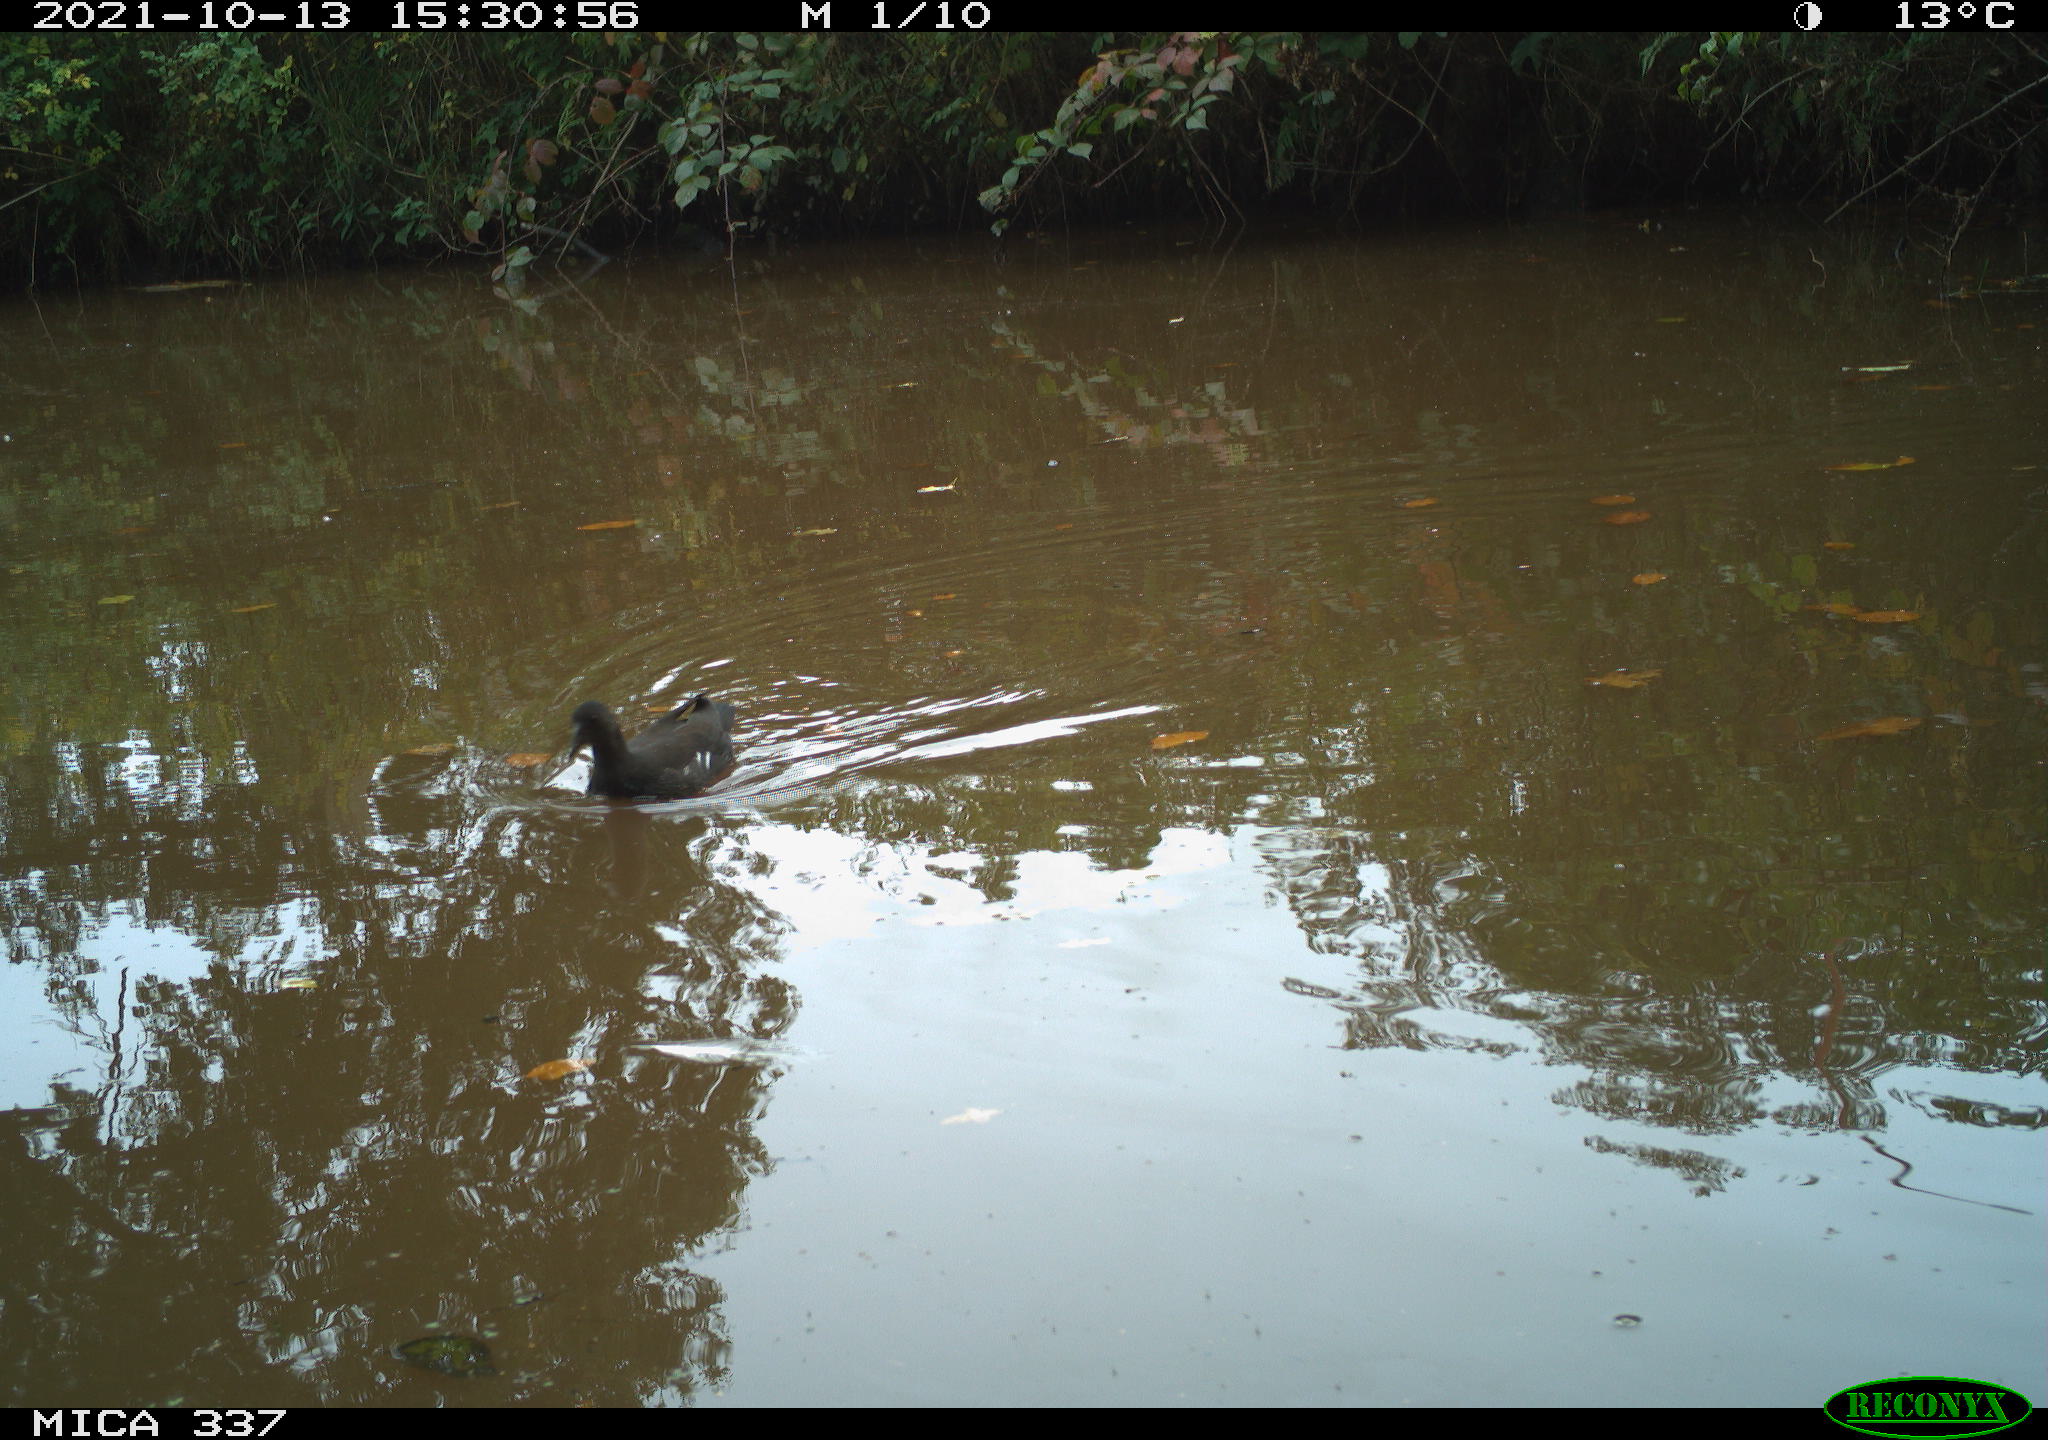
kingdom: Animalia
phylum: Chordata
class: Aves
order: Gruiformes
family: Rallidae
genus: Gallinula
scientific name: Gallinula chloropus
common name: Common moorhen
